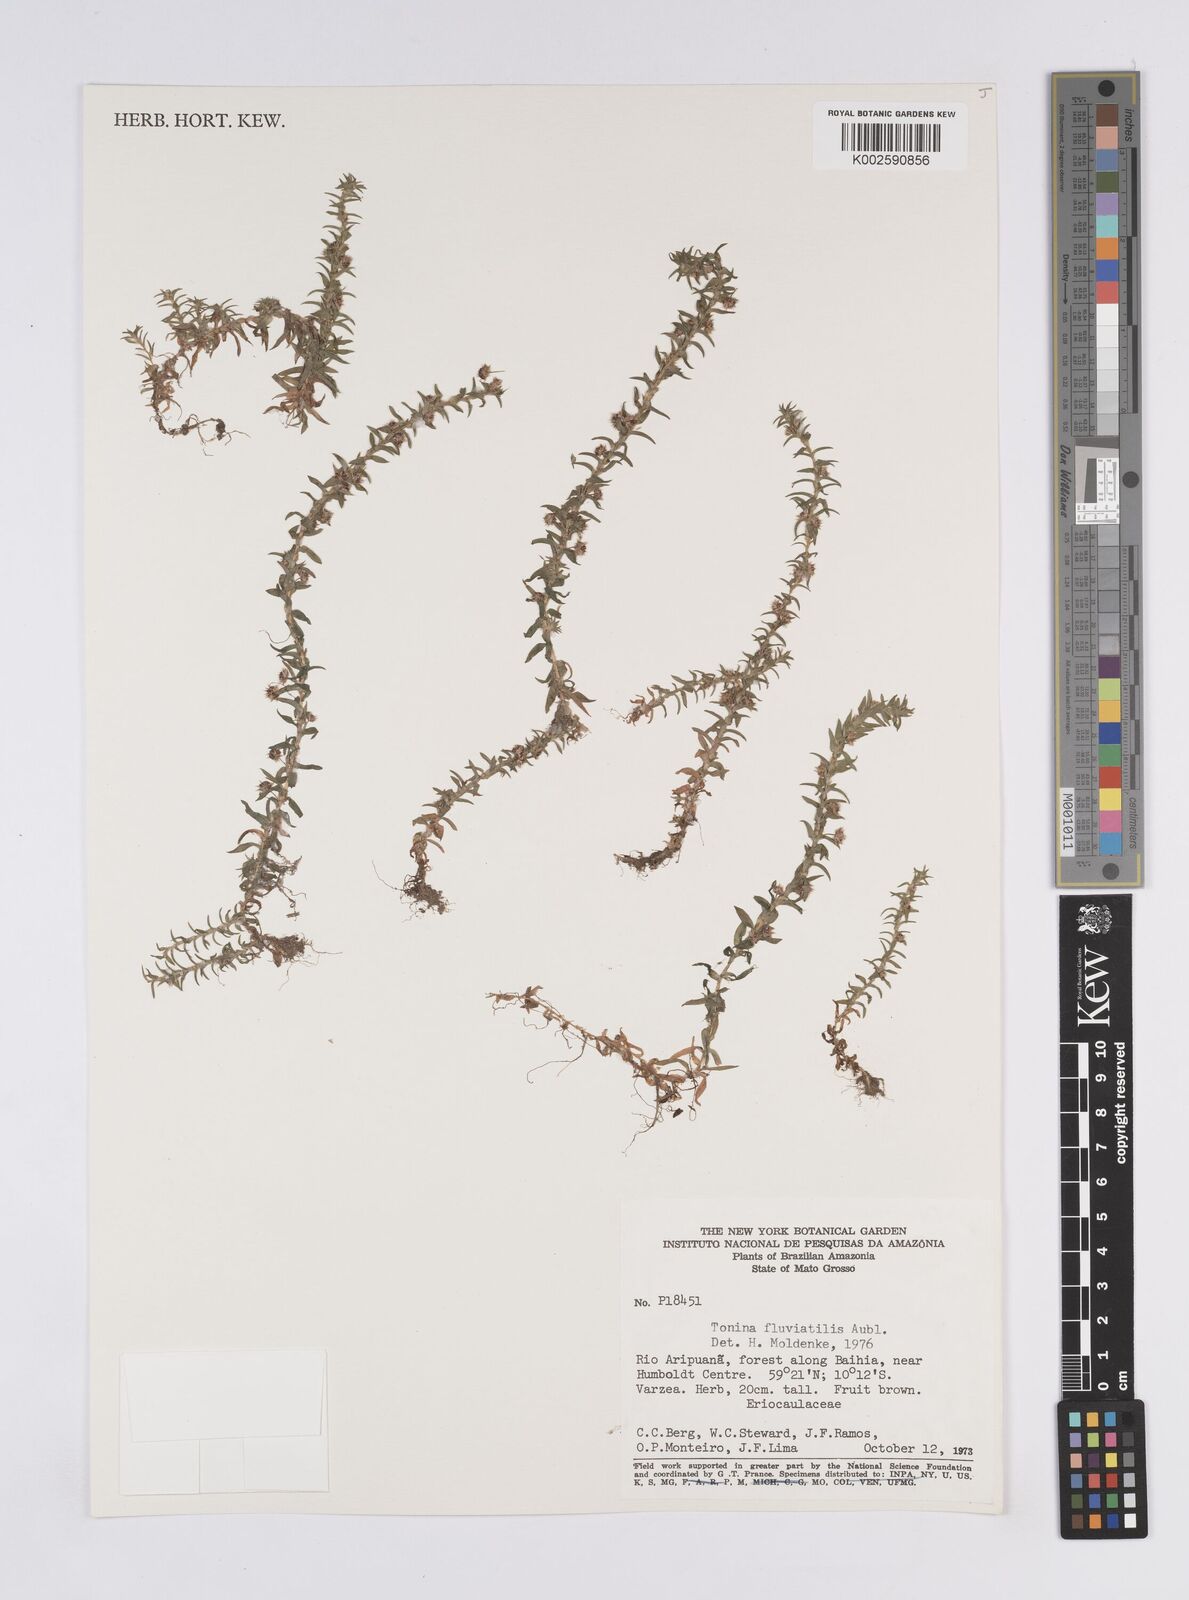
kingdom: Plantae
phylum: Tracheophyta
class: Liliopsida
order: Poales
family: Eriocaulaceae
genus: Paepalanthus
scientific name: Paepalanthus fluviatilis
